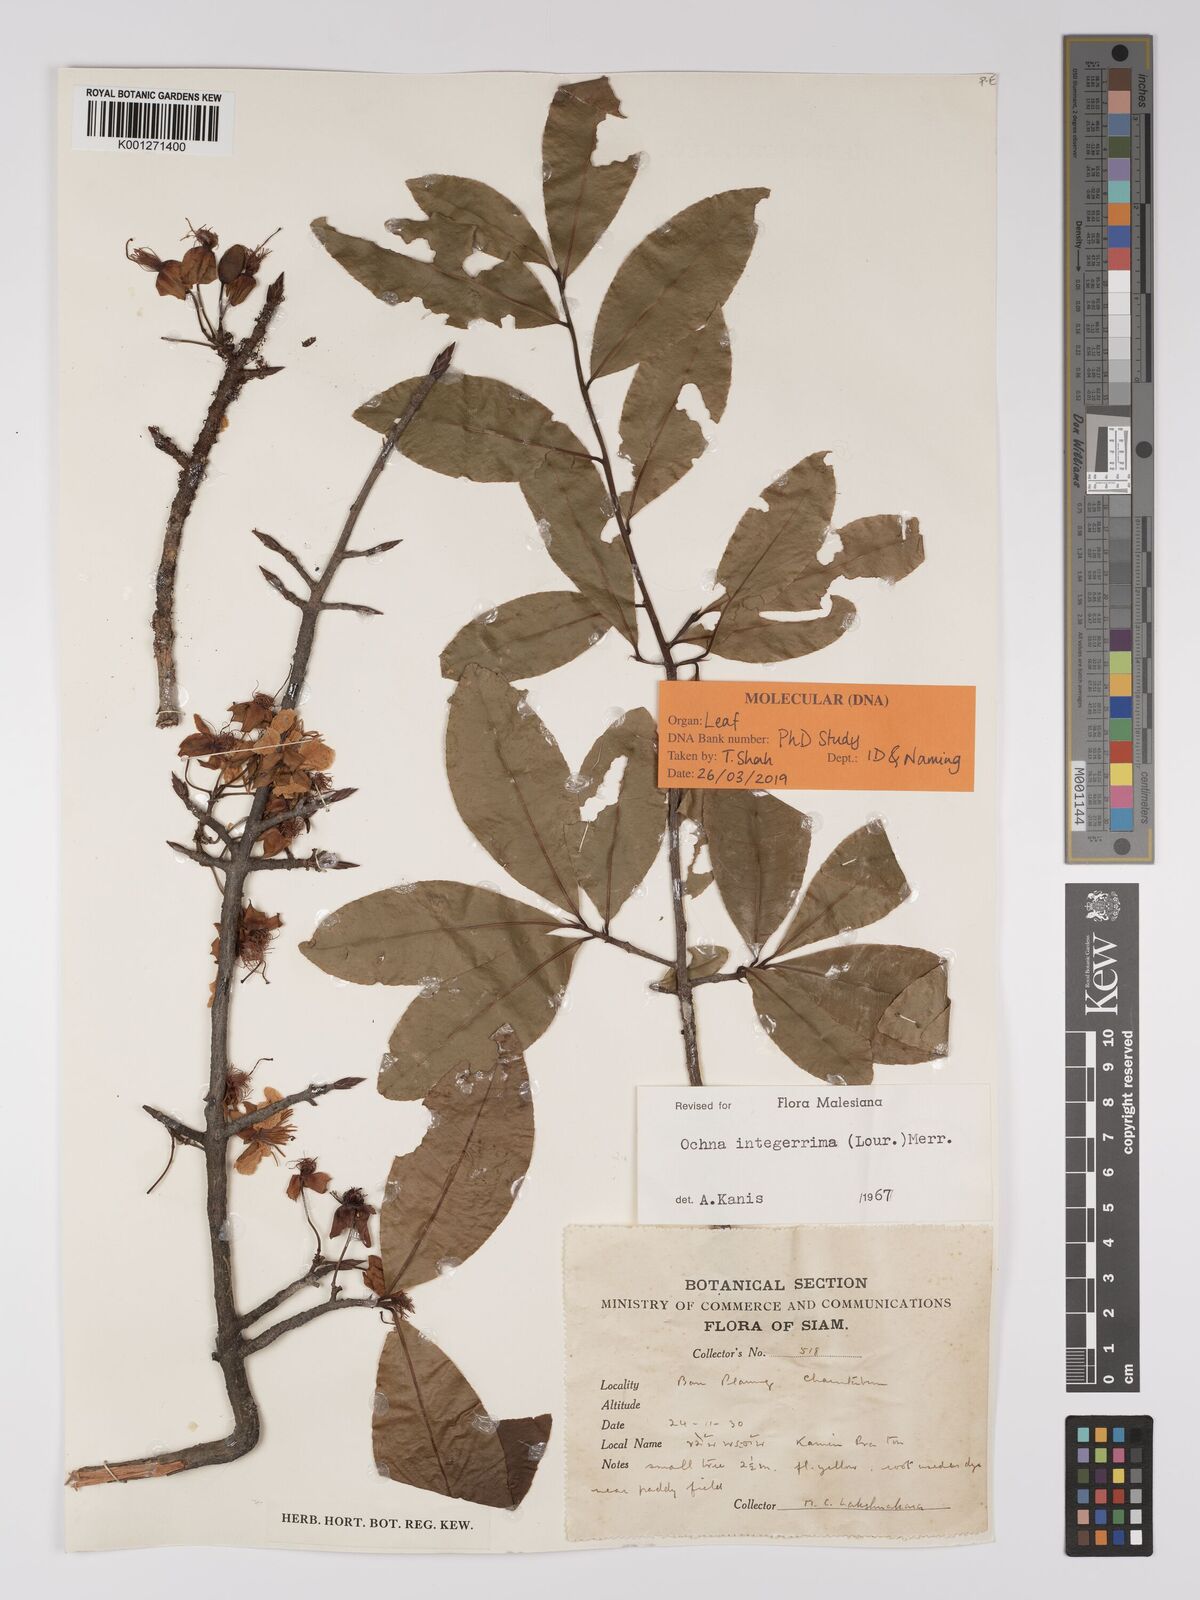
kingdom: Plantae
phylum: Tracheophyta
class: Magnoliopsida
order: Malpighiales
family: Ochnaceae
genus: Ochna
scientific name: Ochna integerrima
